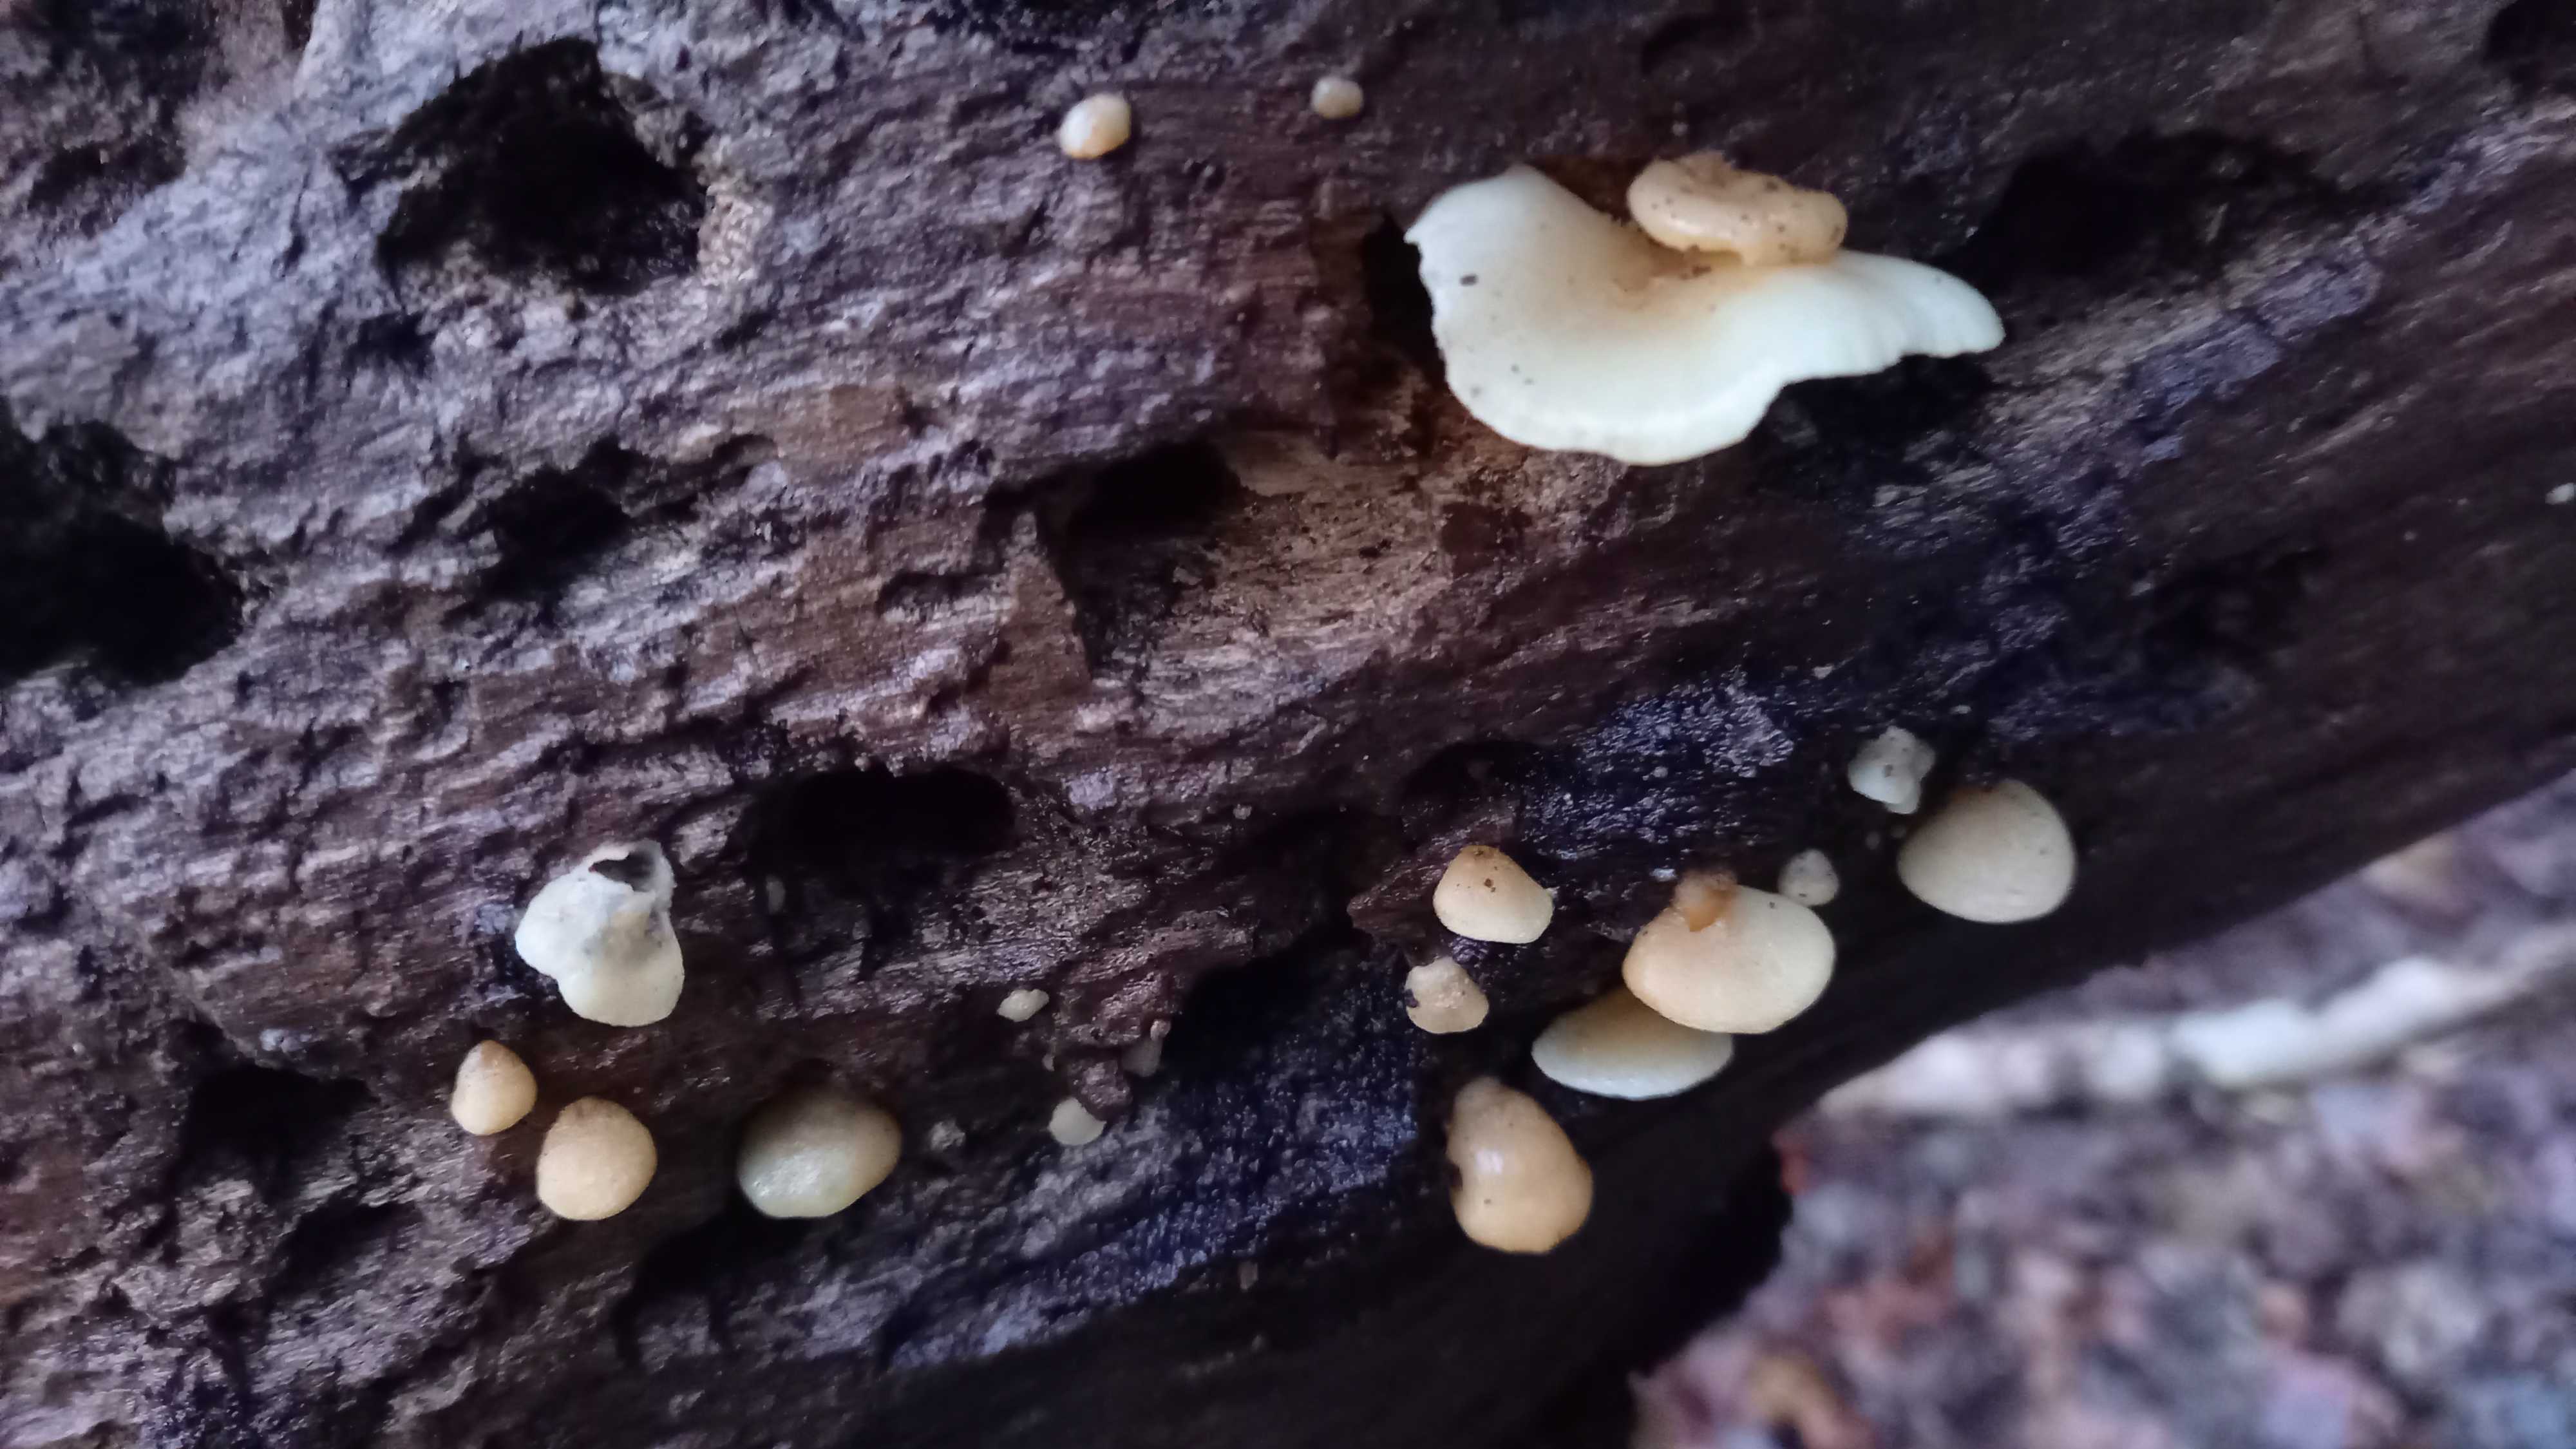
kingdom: Fungi
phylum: Basidiomycota
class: Agaricomycetes
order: Agaricales
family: Crepidotaceae
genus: Crepidotus
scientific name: Crepidotus mollis
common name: blød muslingesvamp
